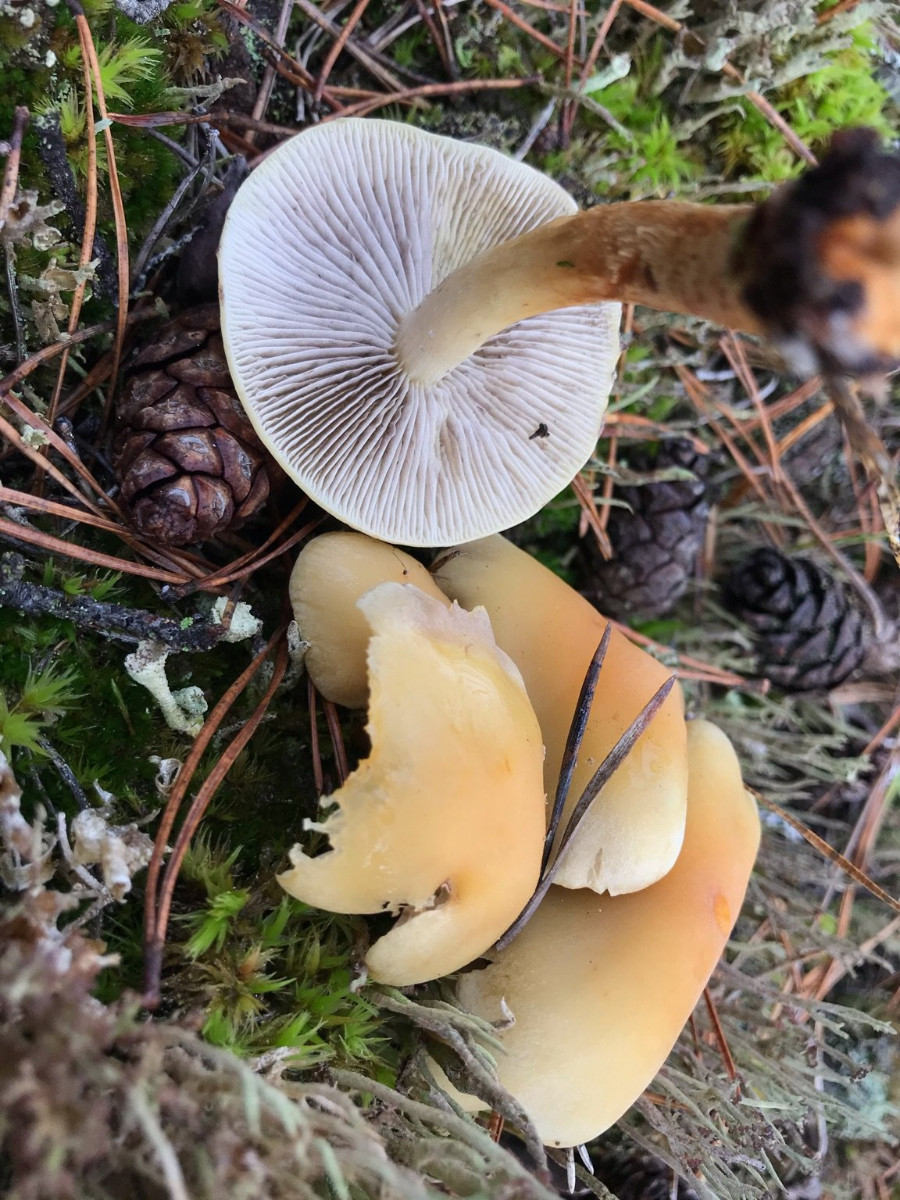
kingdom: Fungi
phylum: Basidiomycota
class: Agaricomycetes
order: Agaricales
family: Strophariaceae
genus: Hypholoma
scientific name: Hypholoma capnoides
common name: gran-svovlhat
